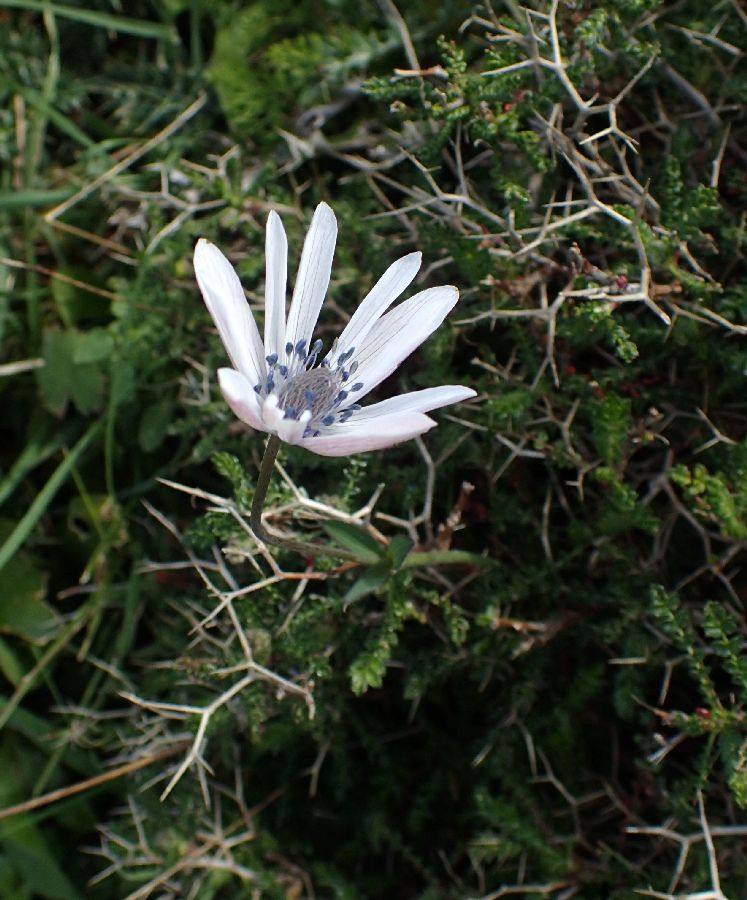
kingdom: Plantae
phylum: Tracheophyta
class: Magnoliopsida
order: Ranunculales
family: Ranunculaceae
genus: Anemone
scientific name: Anemone hortensis
